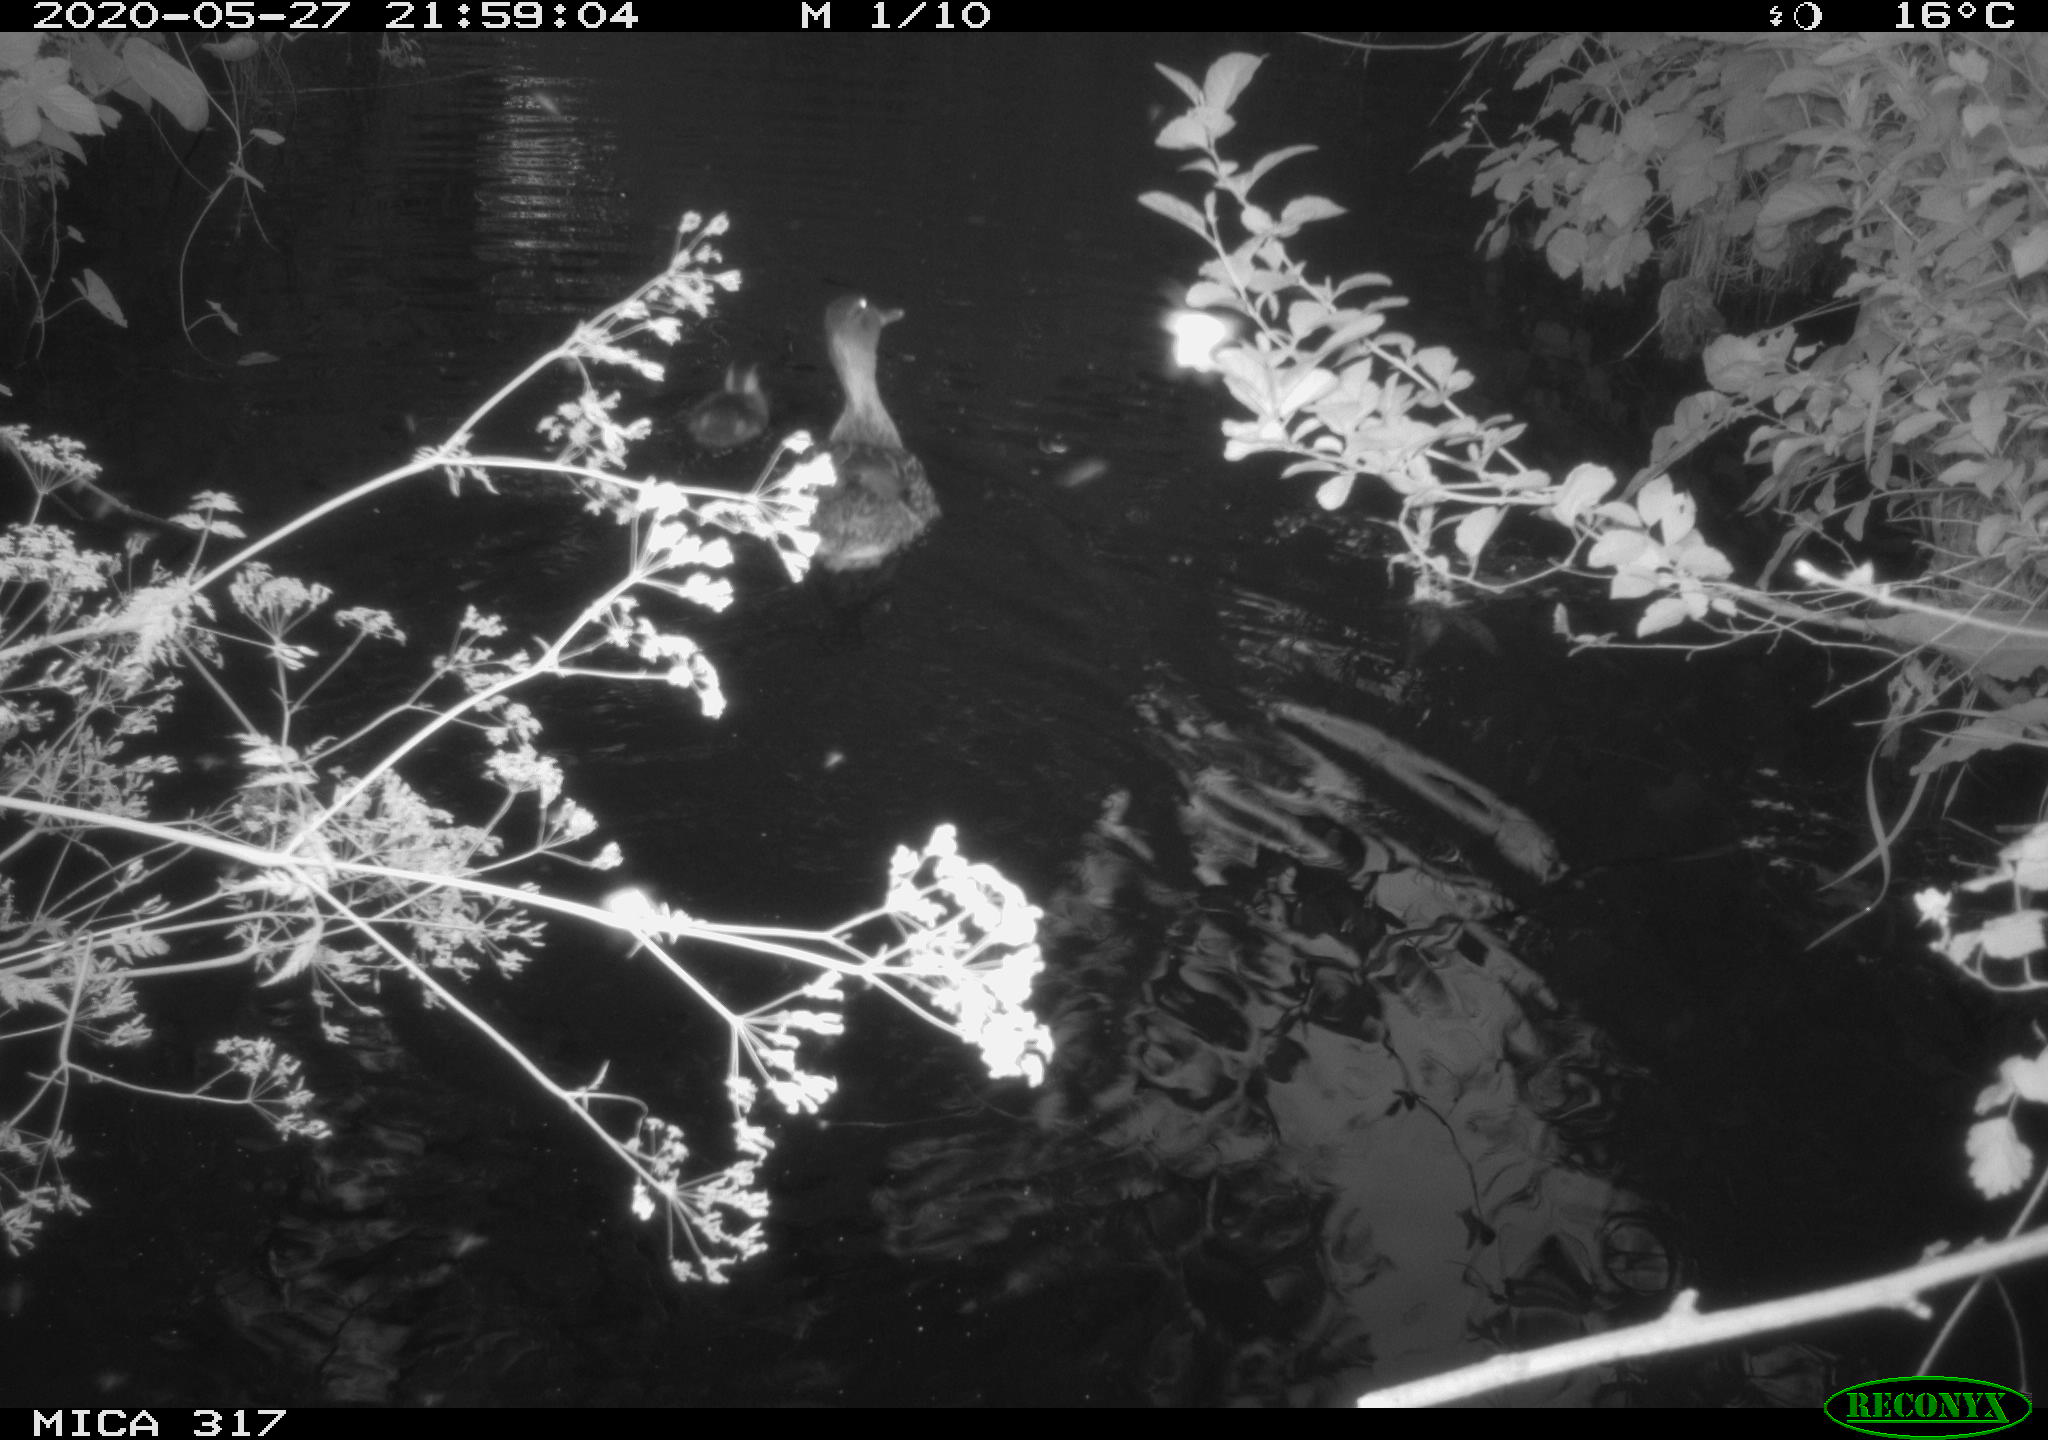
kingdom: Animalia
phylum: Chordata
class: Aves
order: Anseriformes
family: Anatidae
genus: Anas
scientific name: Anas platyrhynchos
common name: Mallard
